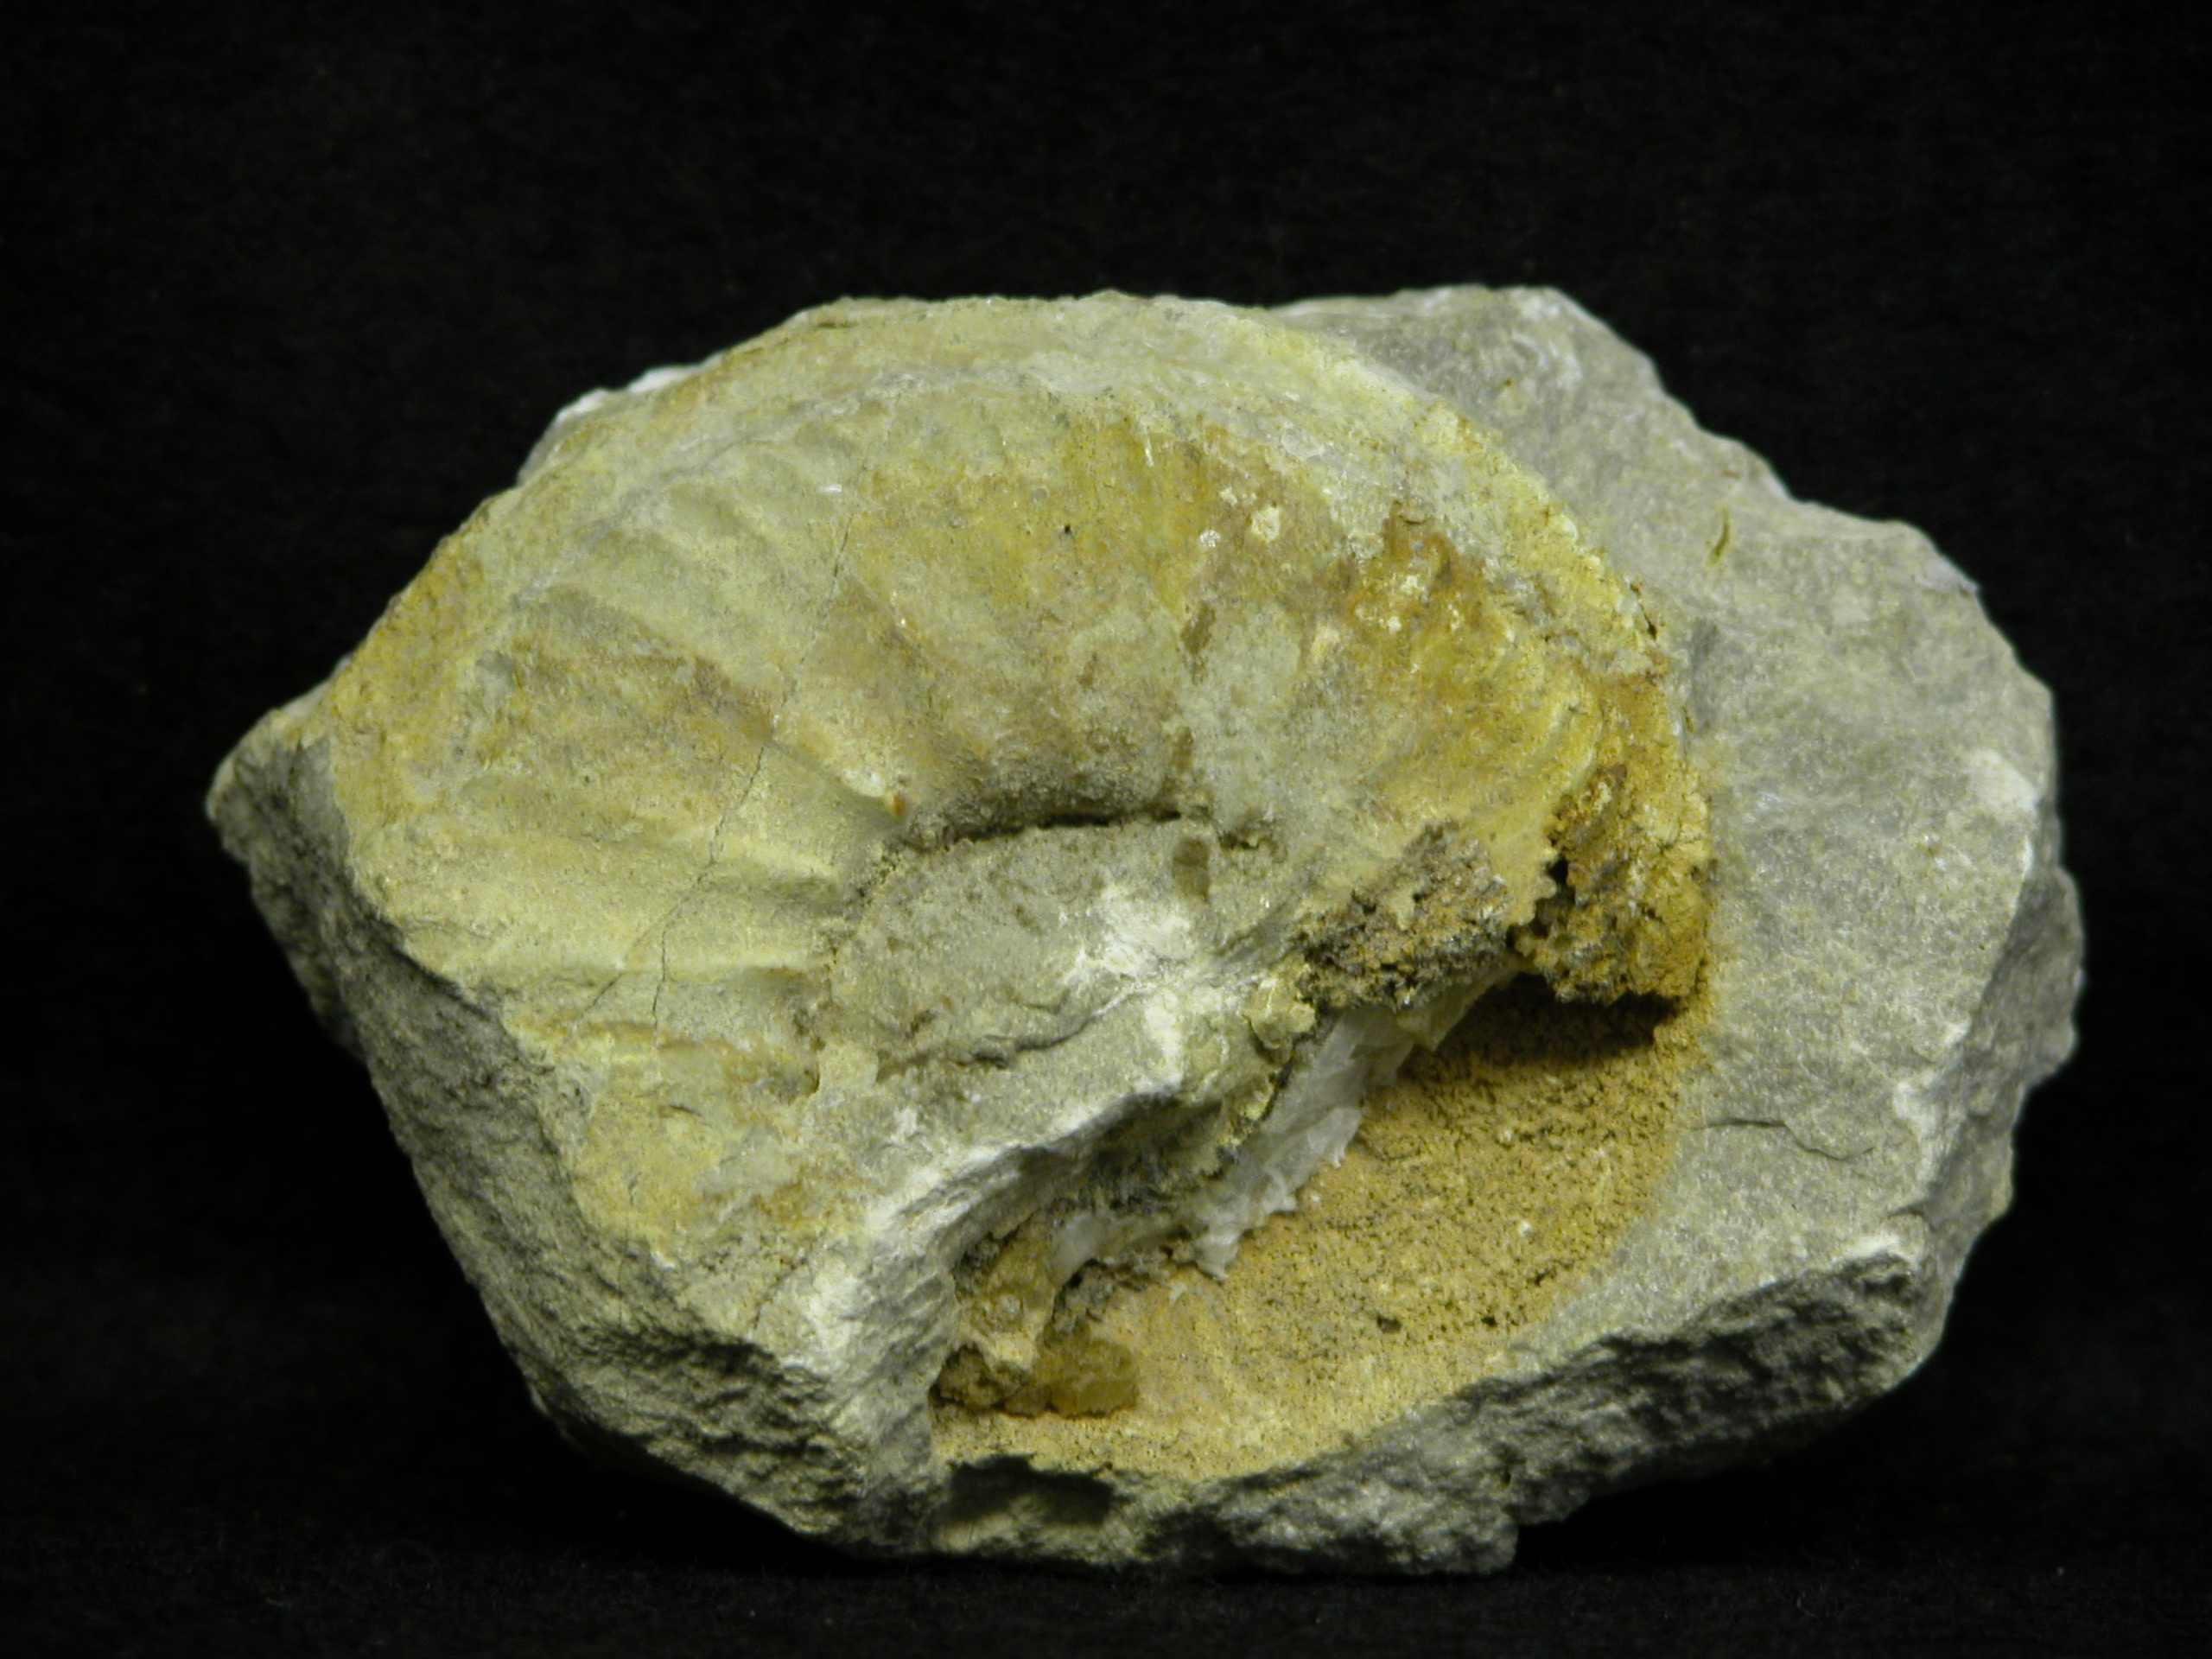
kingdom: Animalia
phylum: Mollusca
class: Cephalopoda
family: Cardioceratidae
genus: Cardioceras
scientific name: Cardioceras
